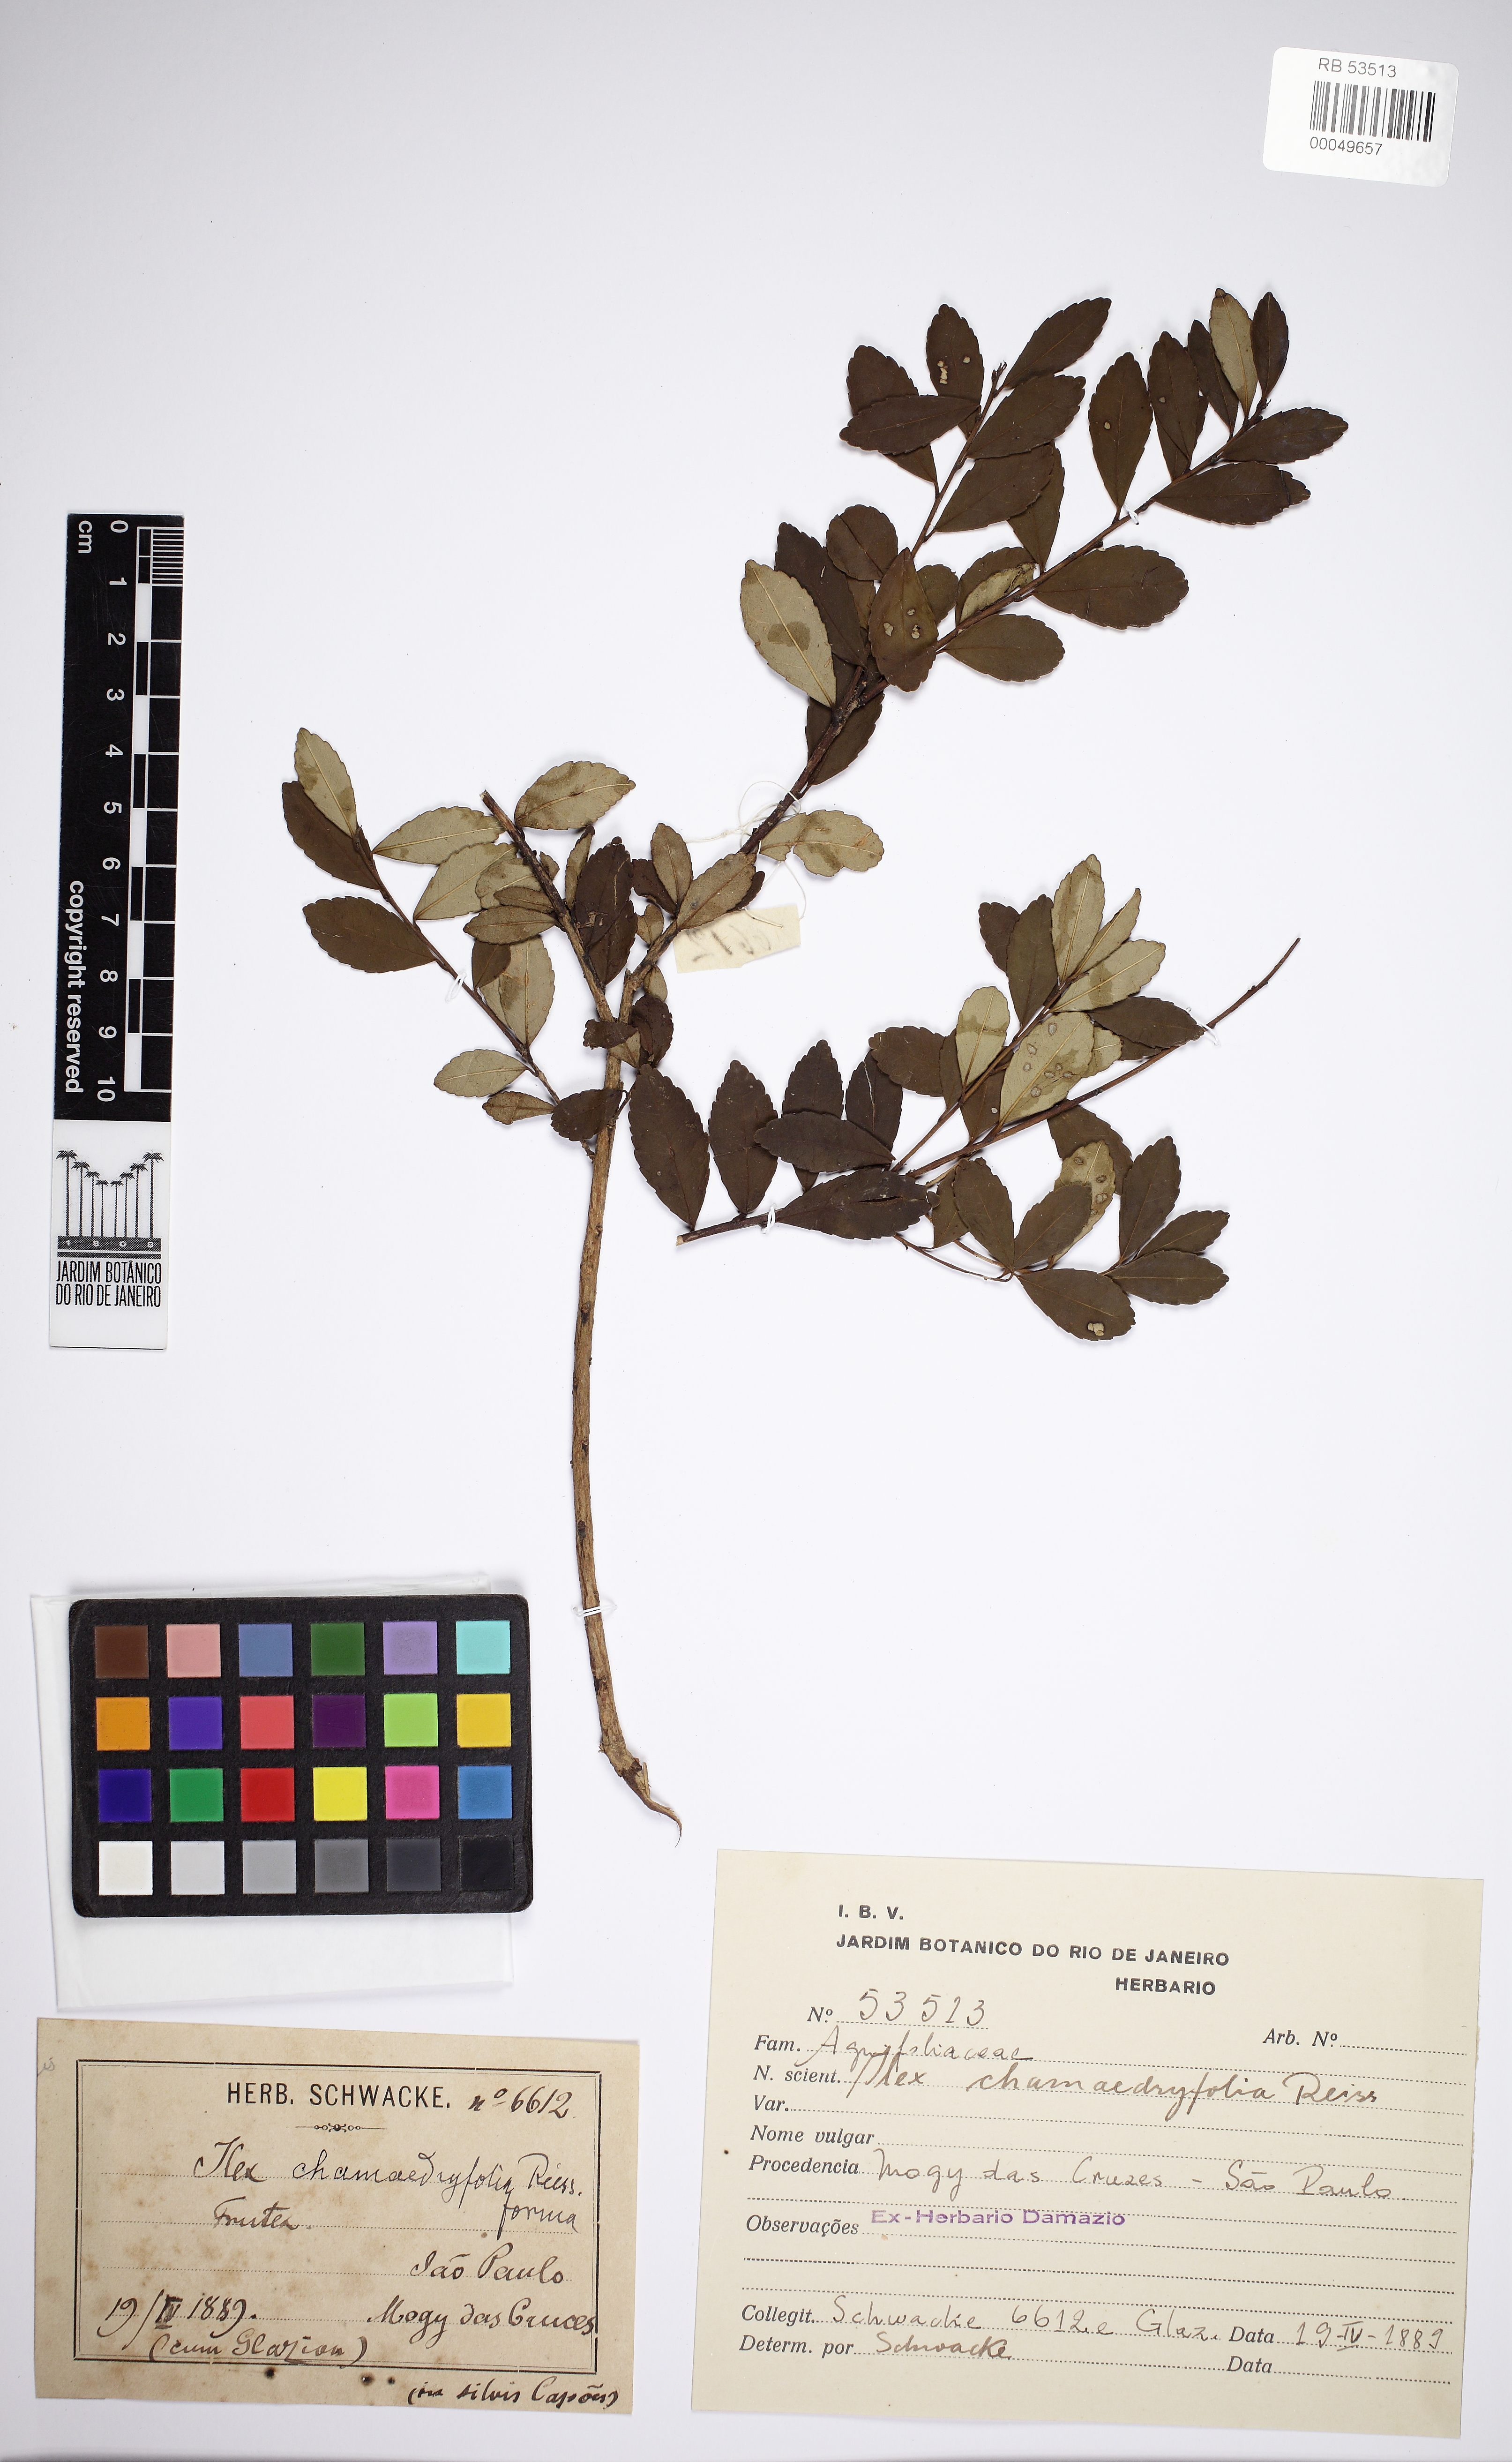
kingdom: Plantae
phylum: Tracheophyta
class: Magnoliopsida
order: Aquifoliales
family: Aquifoliaceae
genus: Ilex
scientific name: Ilex chamaedryfolia
